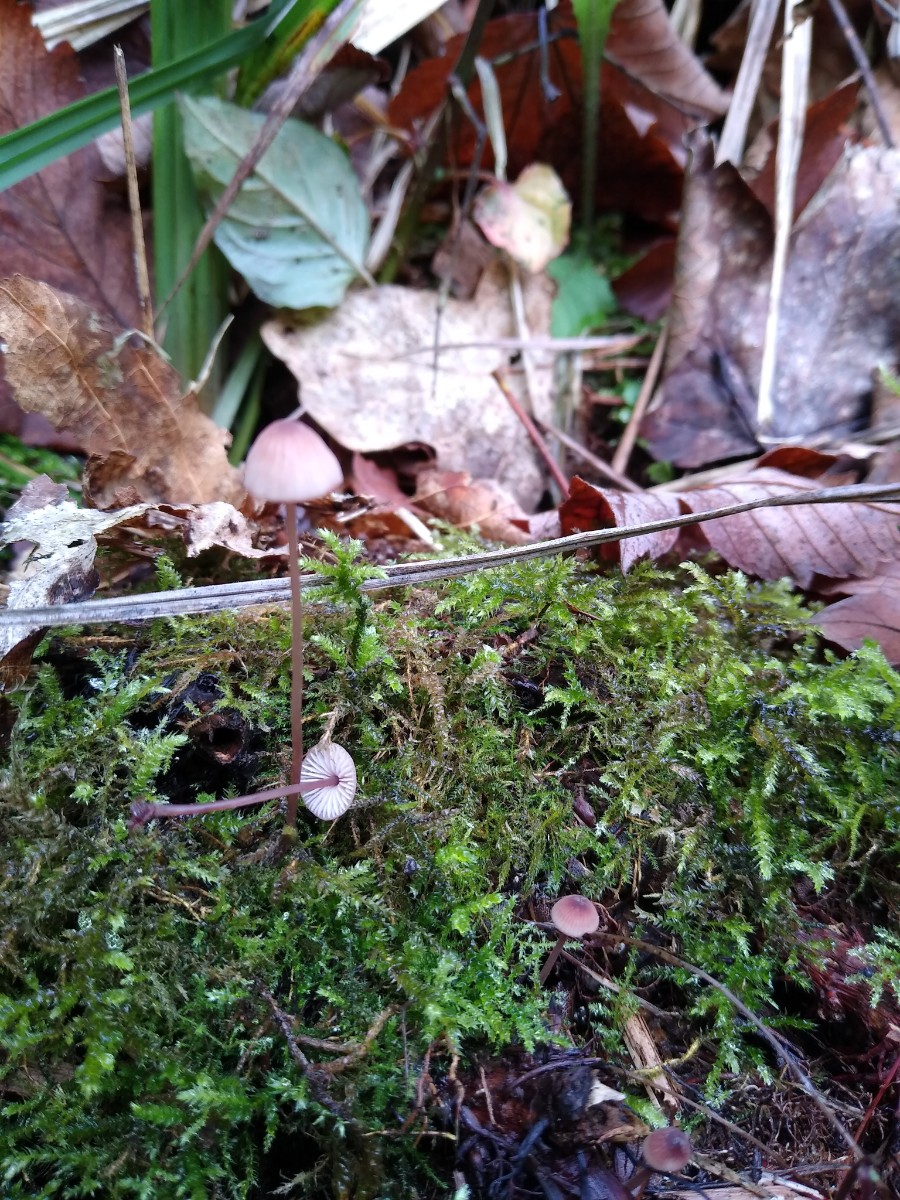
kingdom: Fungi
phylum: Basidiomycota
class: Agaricomycetes
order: Agaricales
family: Mycenaceae
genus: Mycena
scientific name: Mycena sanguinolenta
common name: rødmælket huesvamp
